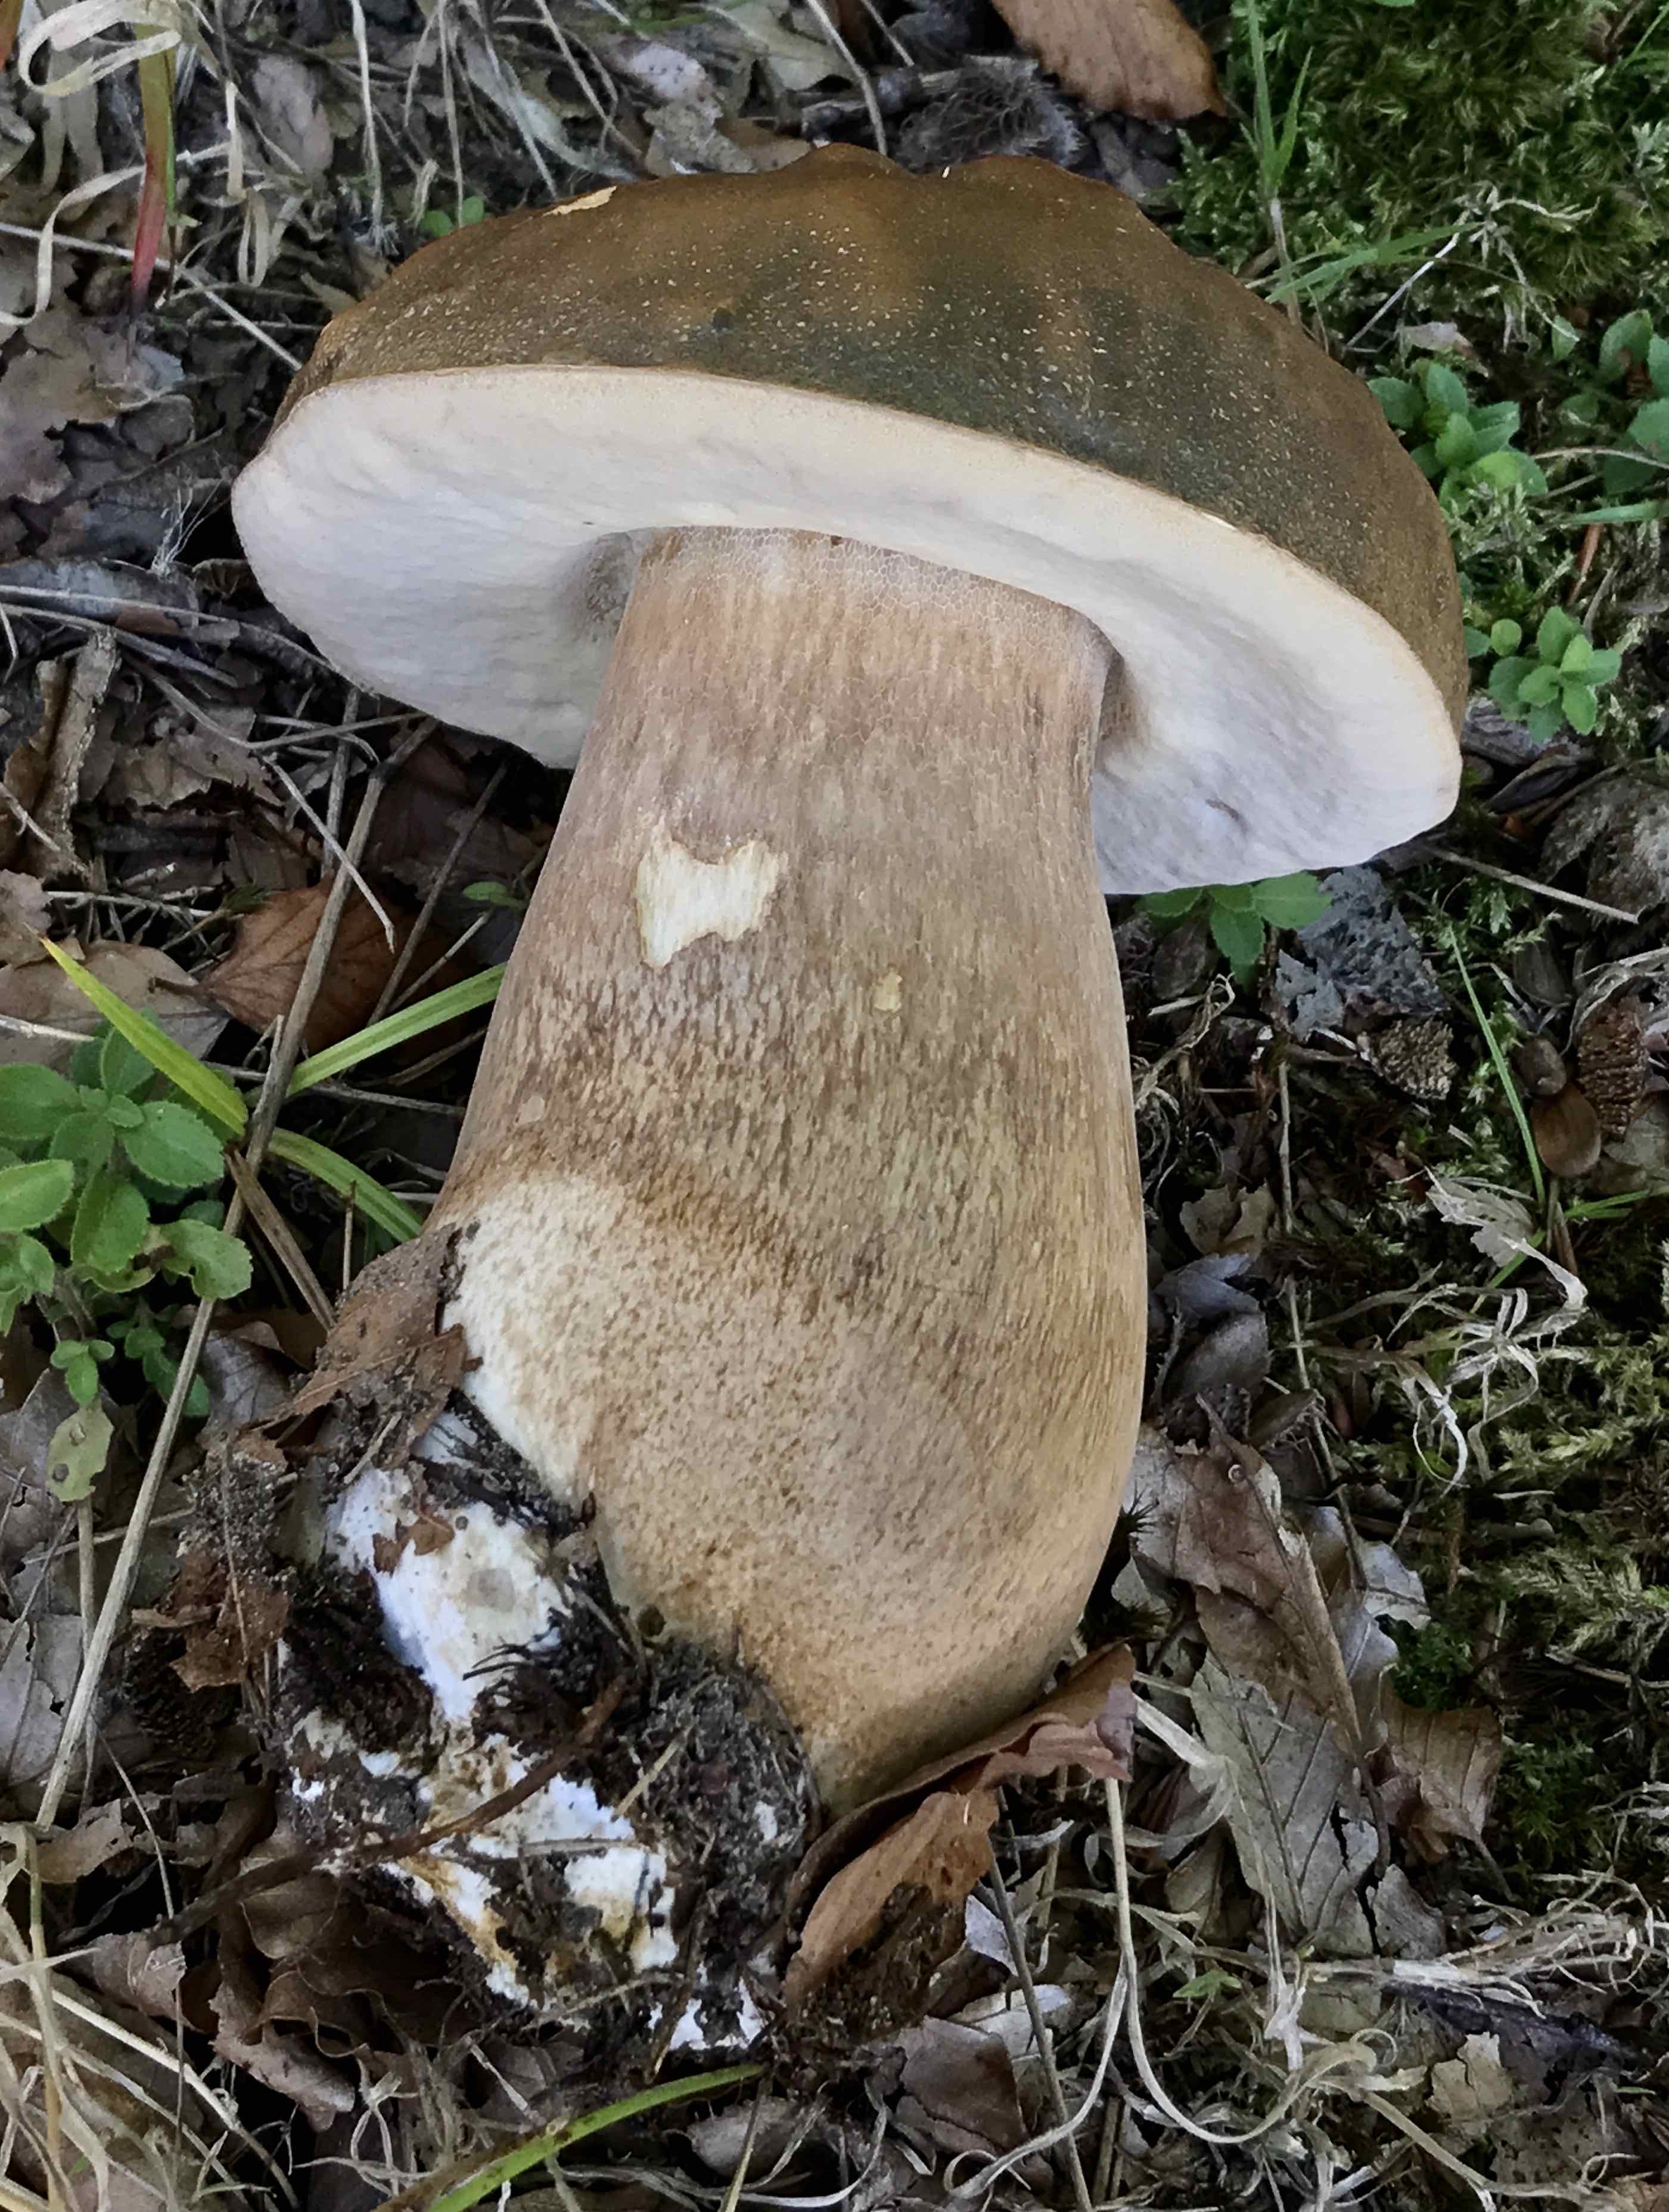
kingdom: Fungi
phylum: Basidiomycota
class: Agaricomycetes
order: Boletales
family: Boletaceae
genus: Boletus
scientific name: Boletus edulis
